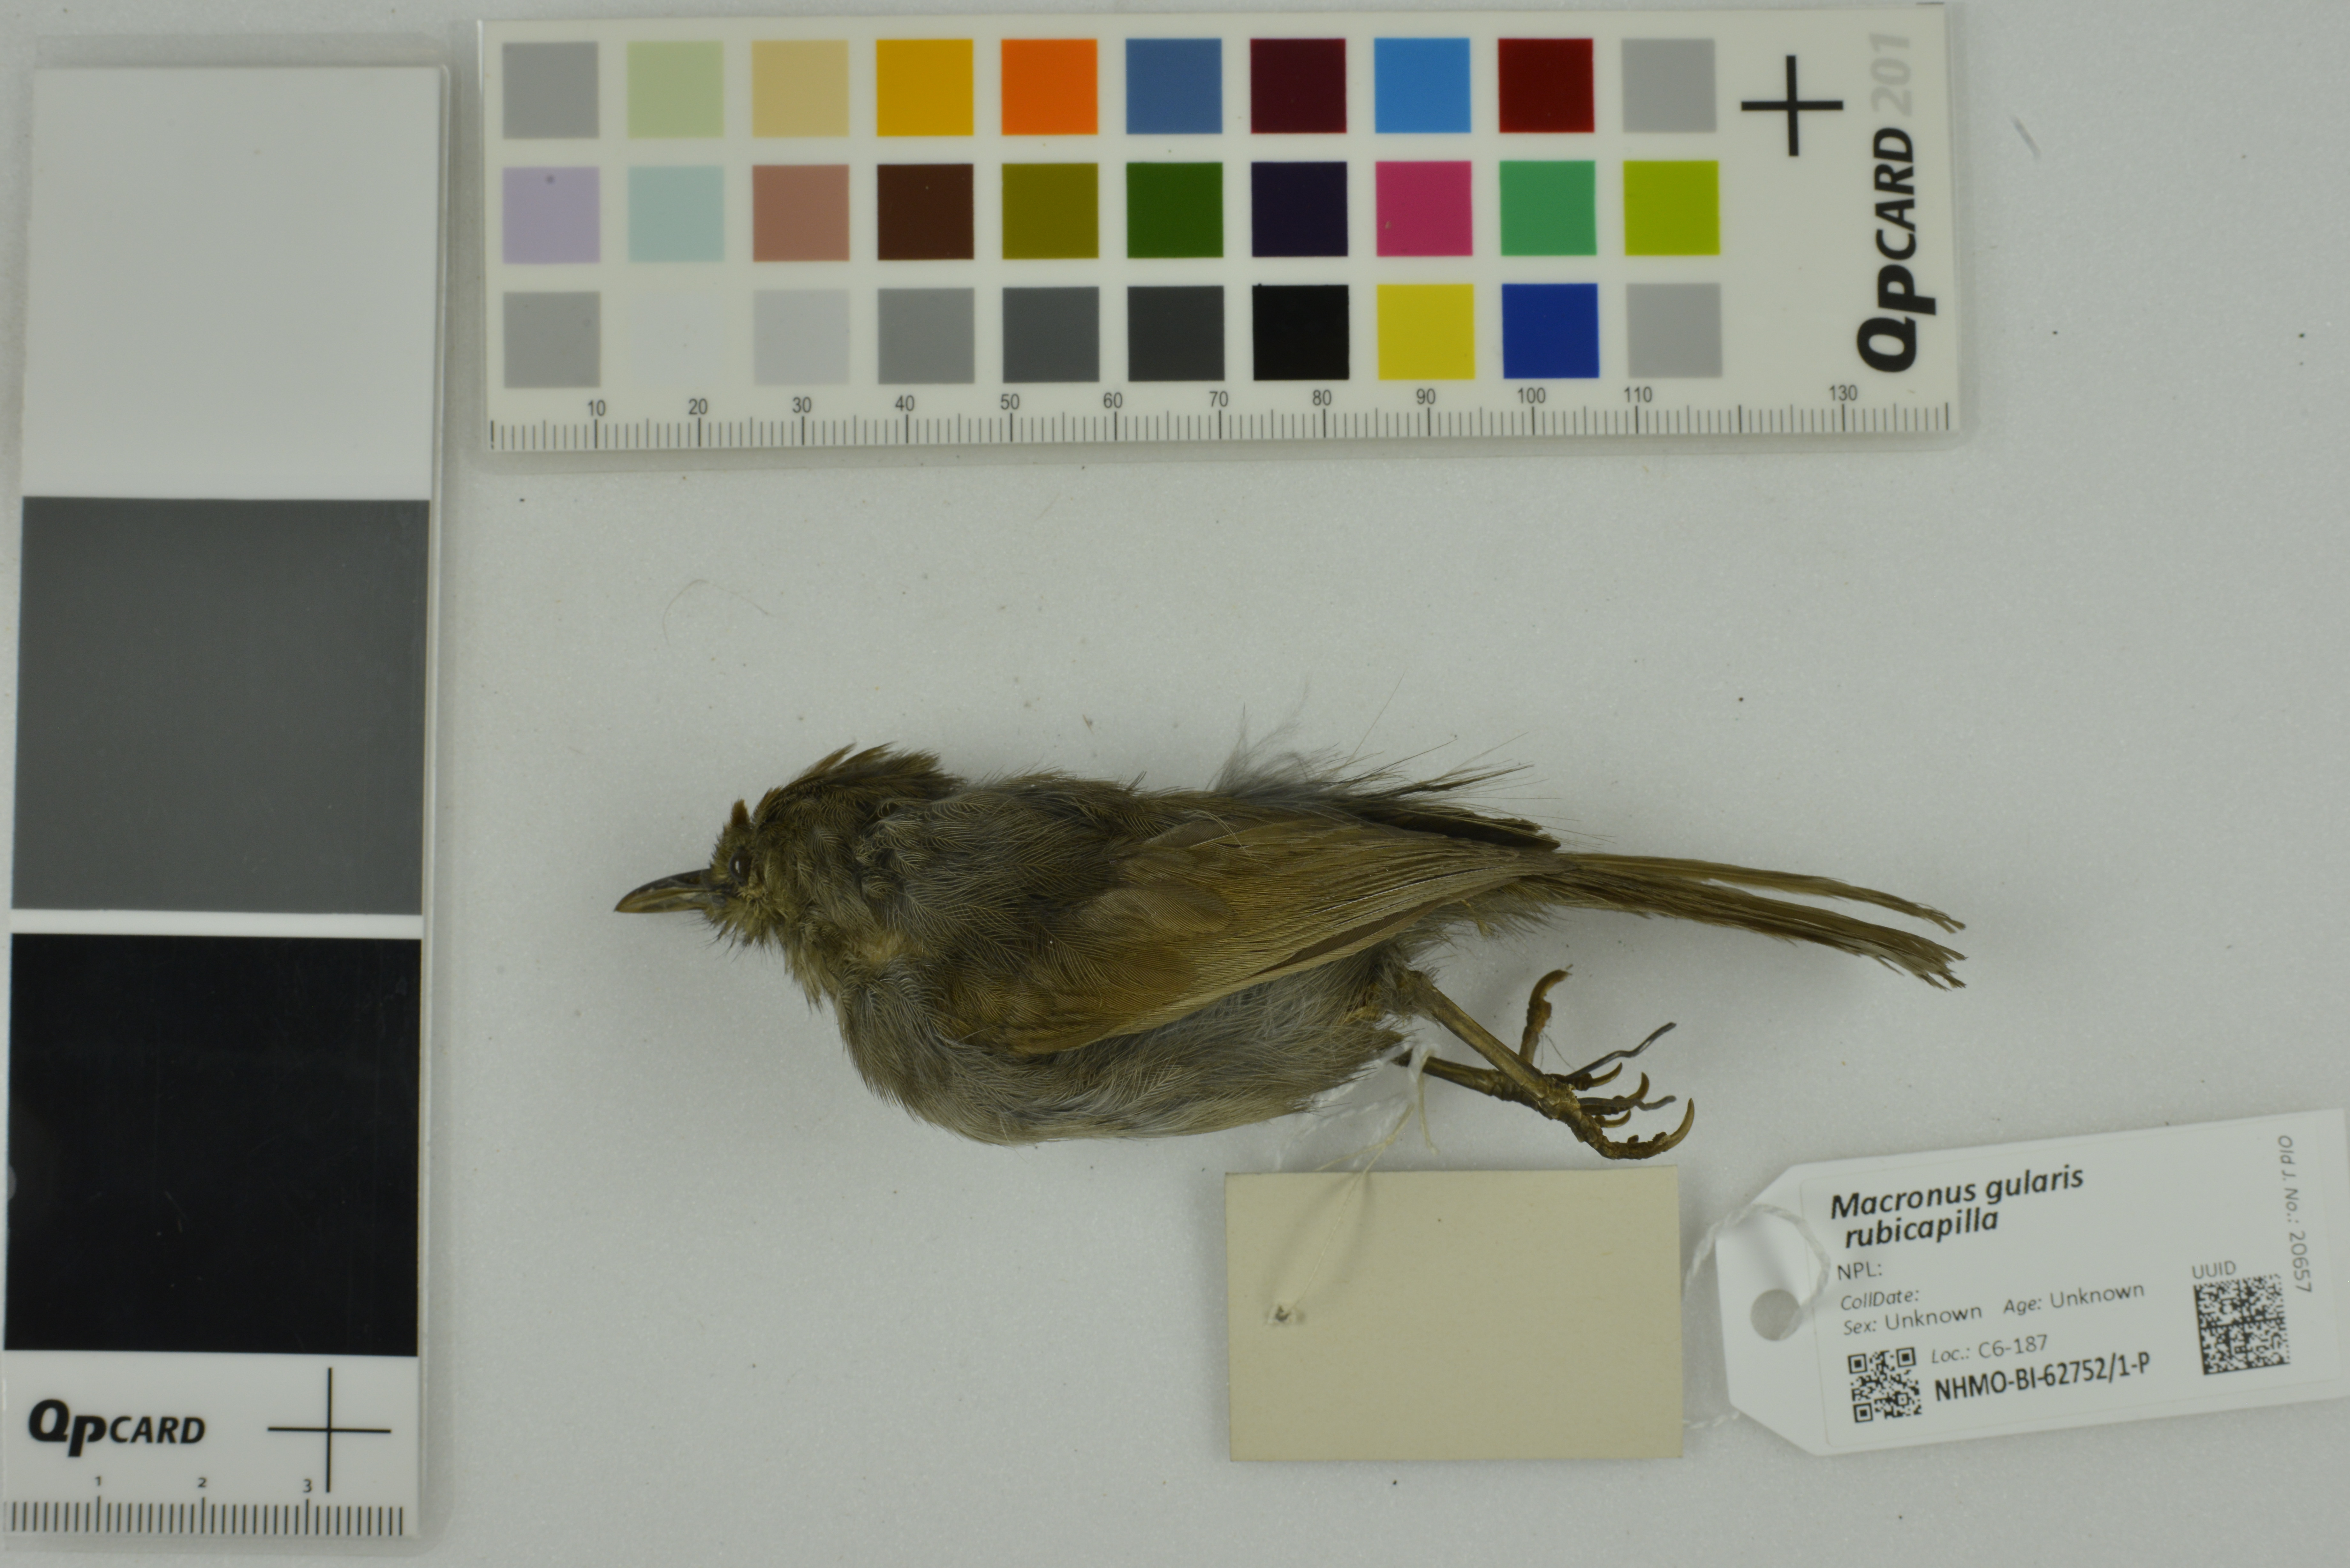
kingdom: Animalia
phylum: Chordata
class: Aves
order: Passeriformes
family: Timaliidae
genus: Macronus
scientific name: Macronus gularis
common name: Striped tit-babbler
